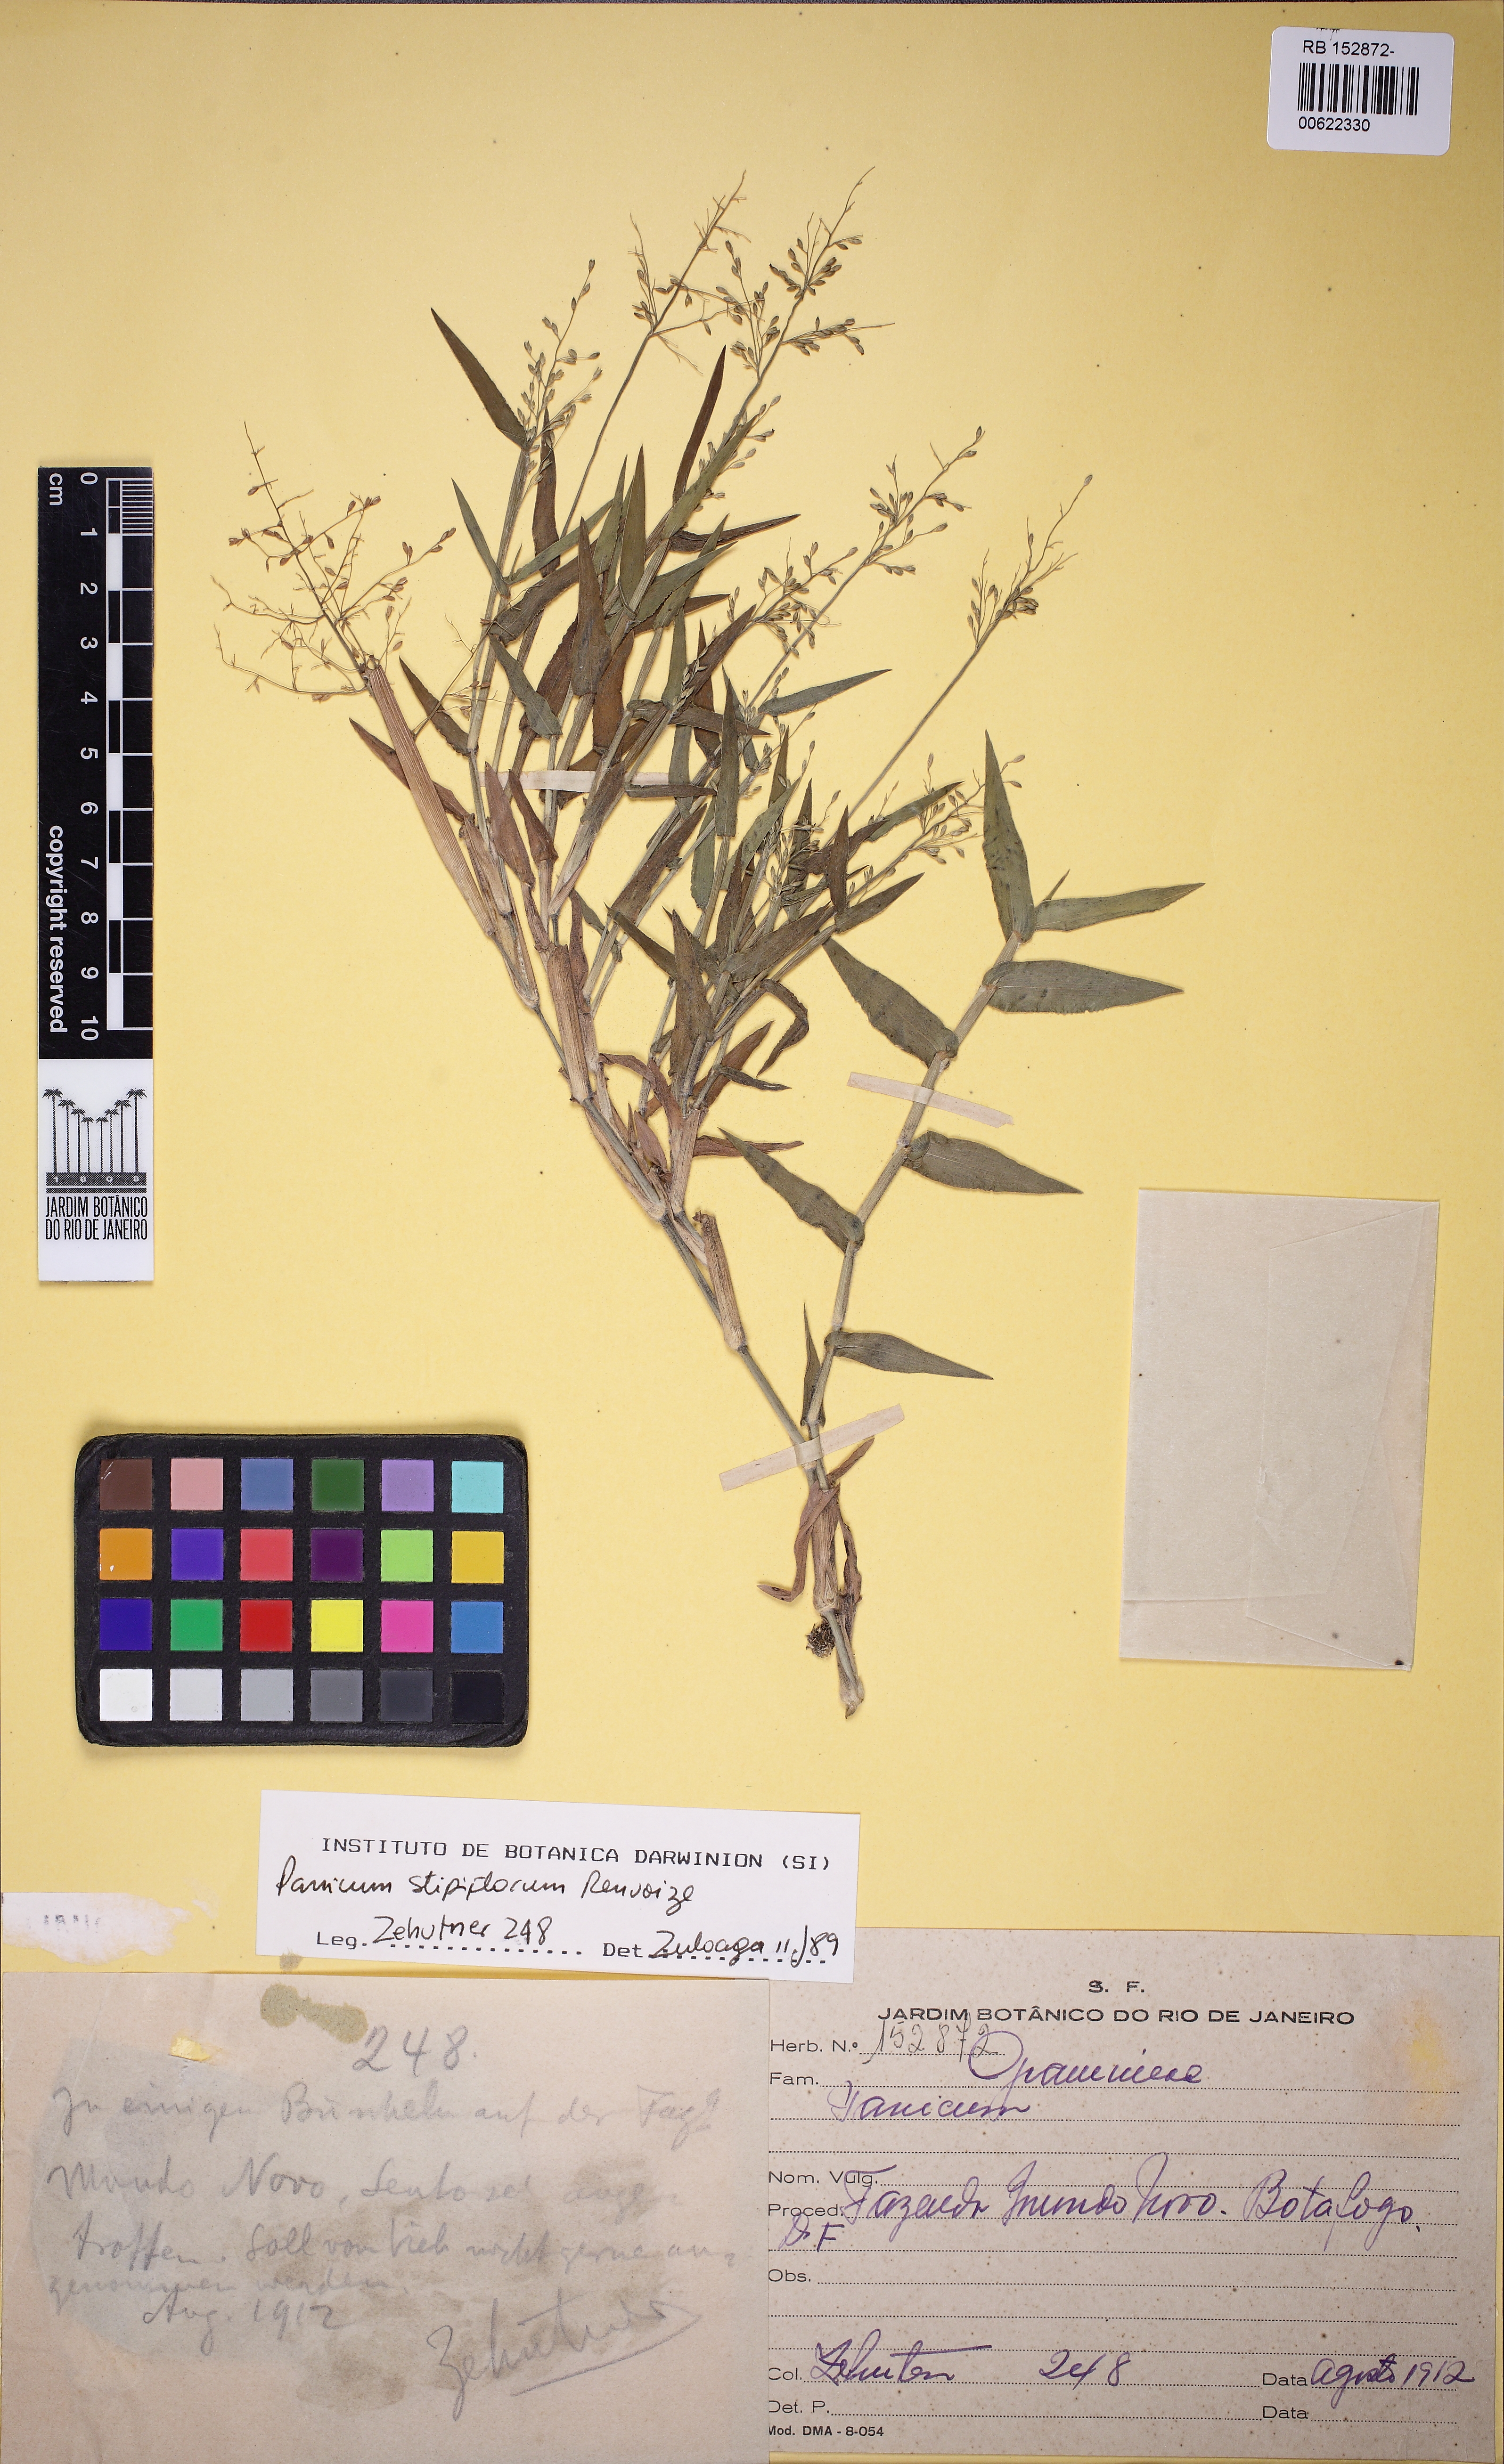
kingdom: Plantae
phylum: Tracheophyta
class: Liliopsida
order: Poales
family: Poaceae
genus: Dichanthelium
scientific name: Dichanthelium stipiflorum
